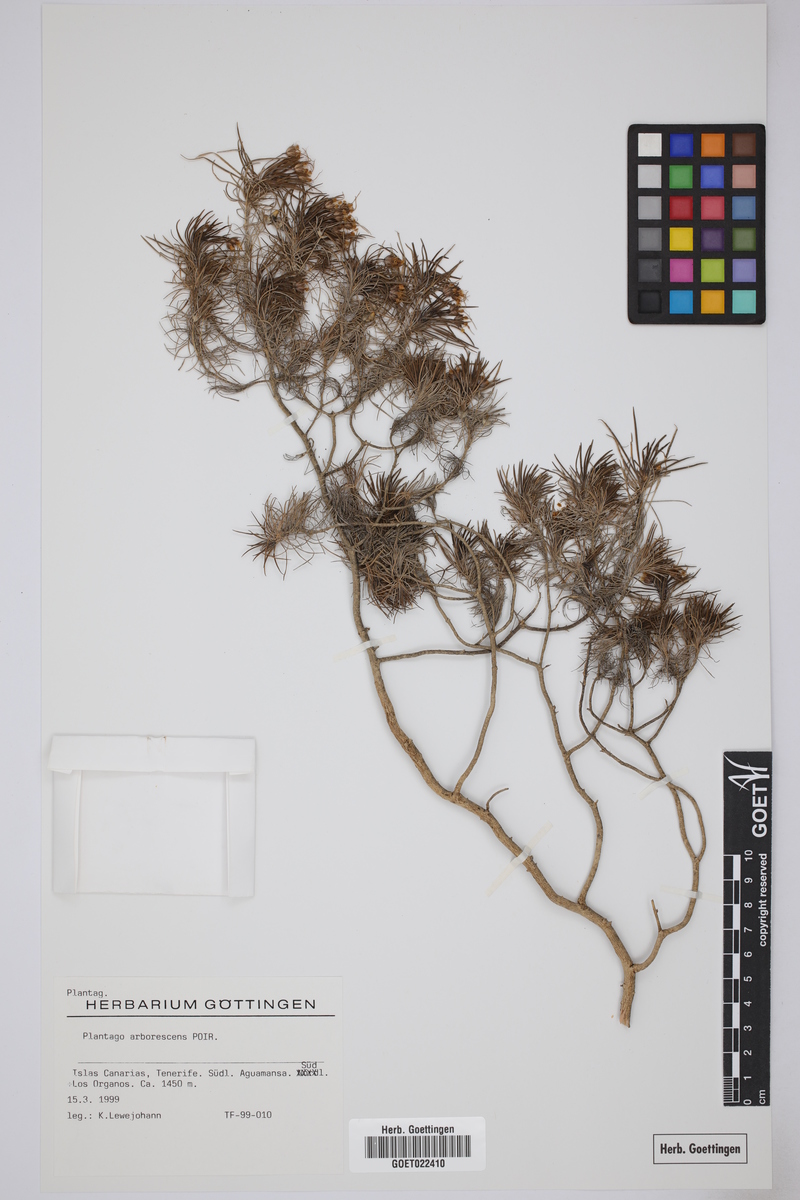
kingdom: Plantae
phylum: Tracheophyta
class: Magnoliopsida
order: Lamiales
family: Plantaginaceae
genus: Plantago
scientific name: Plantago arborescens
